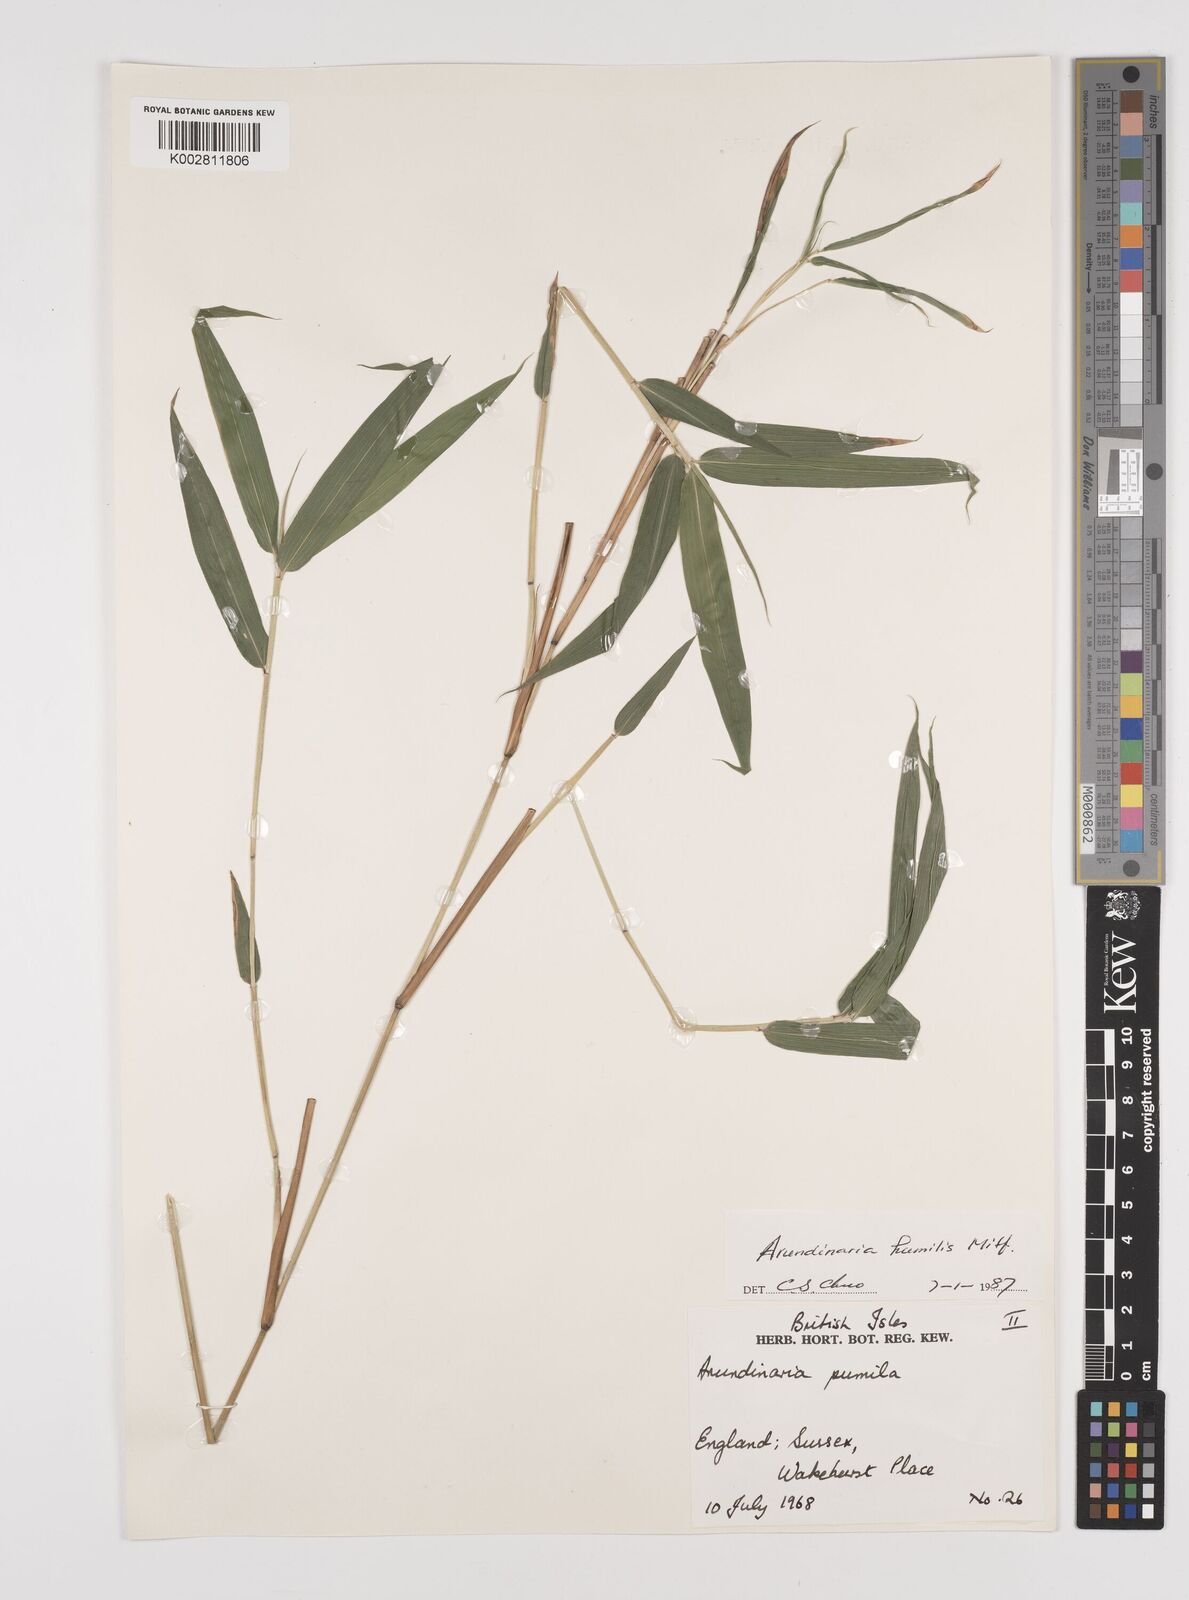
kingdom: Plantae
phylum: Tracheophyta
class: Liliopsida
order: Poales
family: Poaceae
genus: Pseudosasa
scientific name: Pseudosasa humilis
